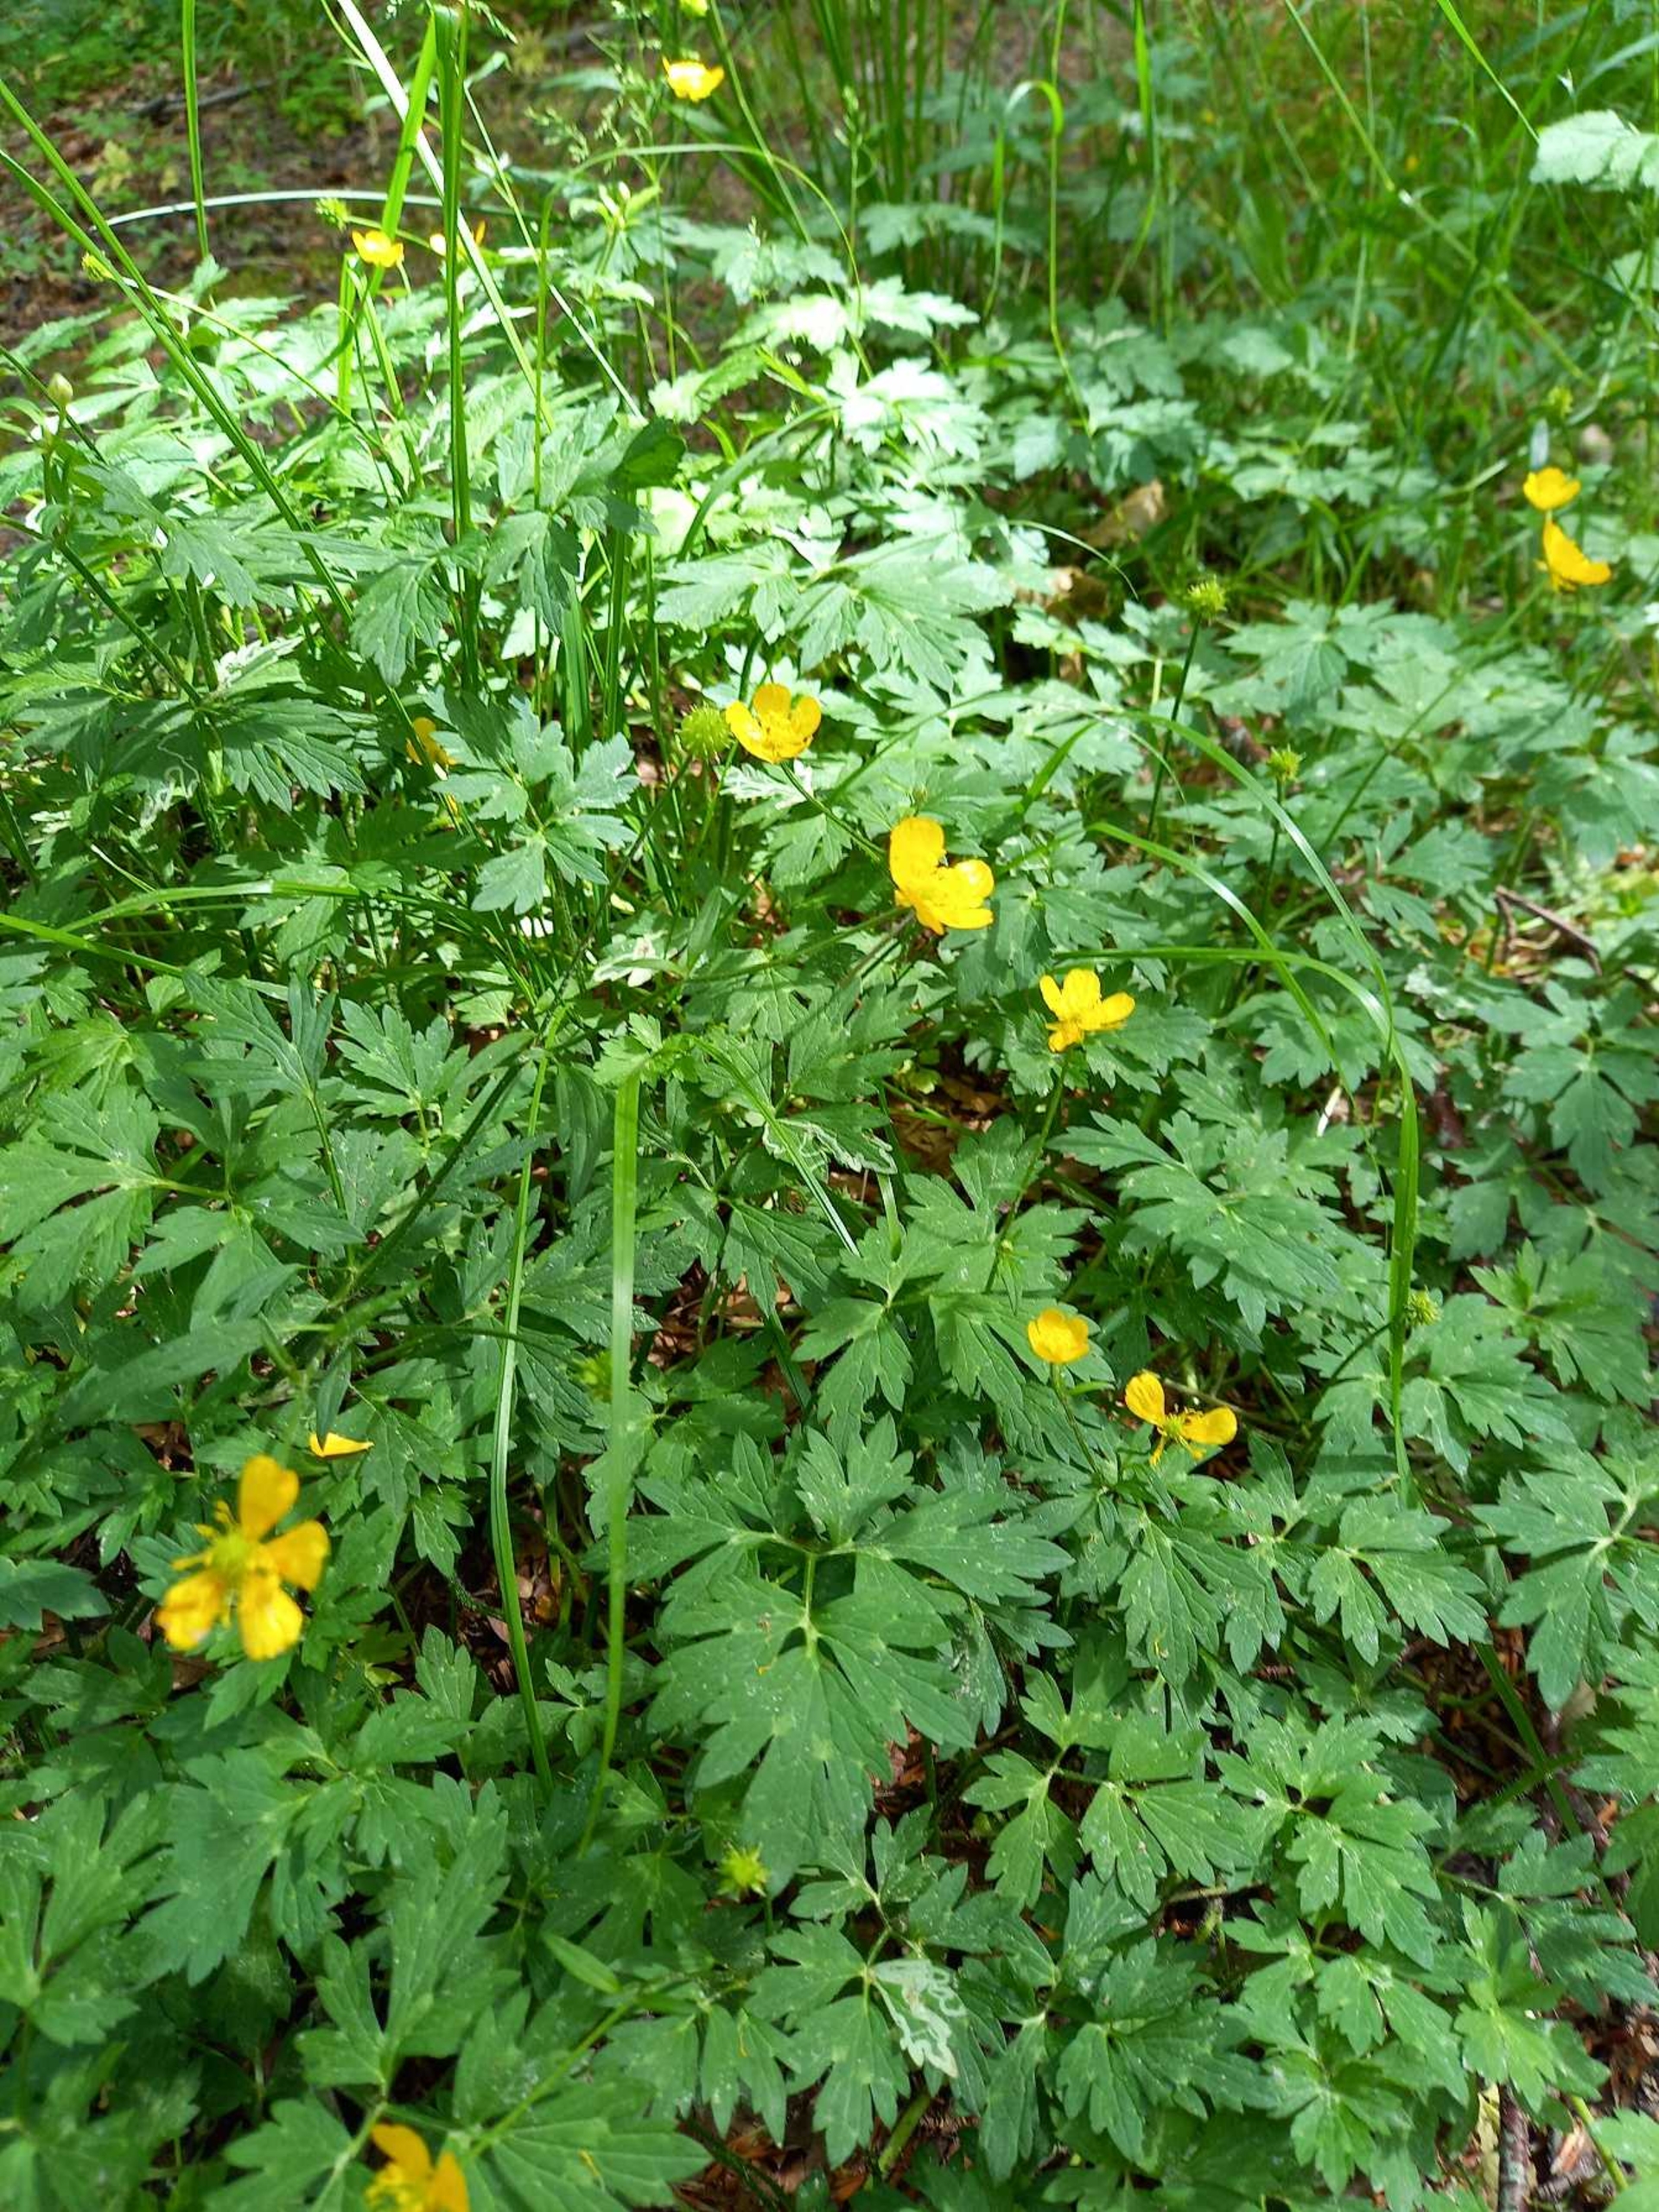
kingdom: Plantae
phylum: Tracheophyta
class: Magnoliopsida
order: Ranunculales
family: Ranunculaceae
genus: Ranunculus
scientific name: Ranunculus repens
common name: Lav ranunkel
